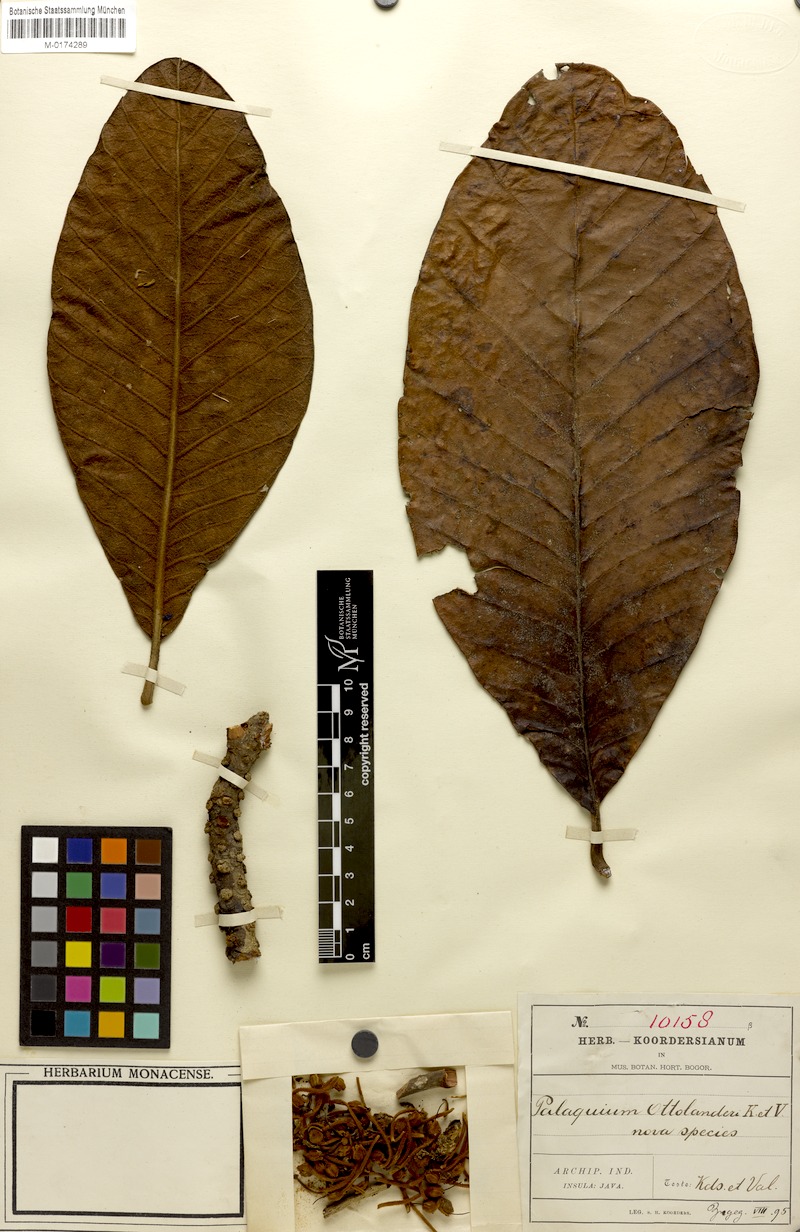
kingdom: Plantae
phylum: Tracheophyta
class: Magnoliopsida
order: Ericales
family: Sapotaceae
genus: Palaquium
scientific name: Palaquium Croixia ottolanderi
